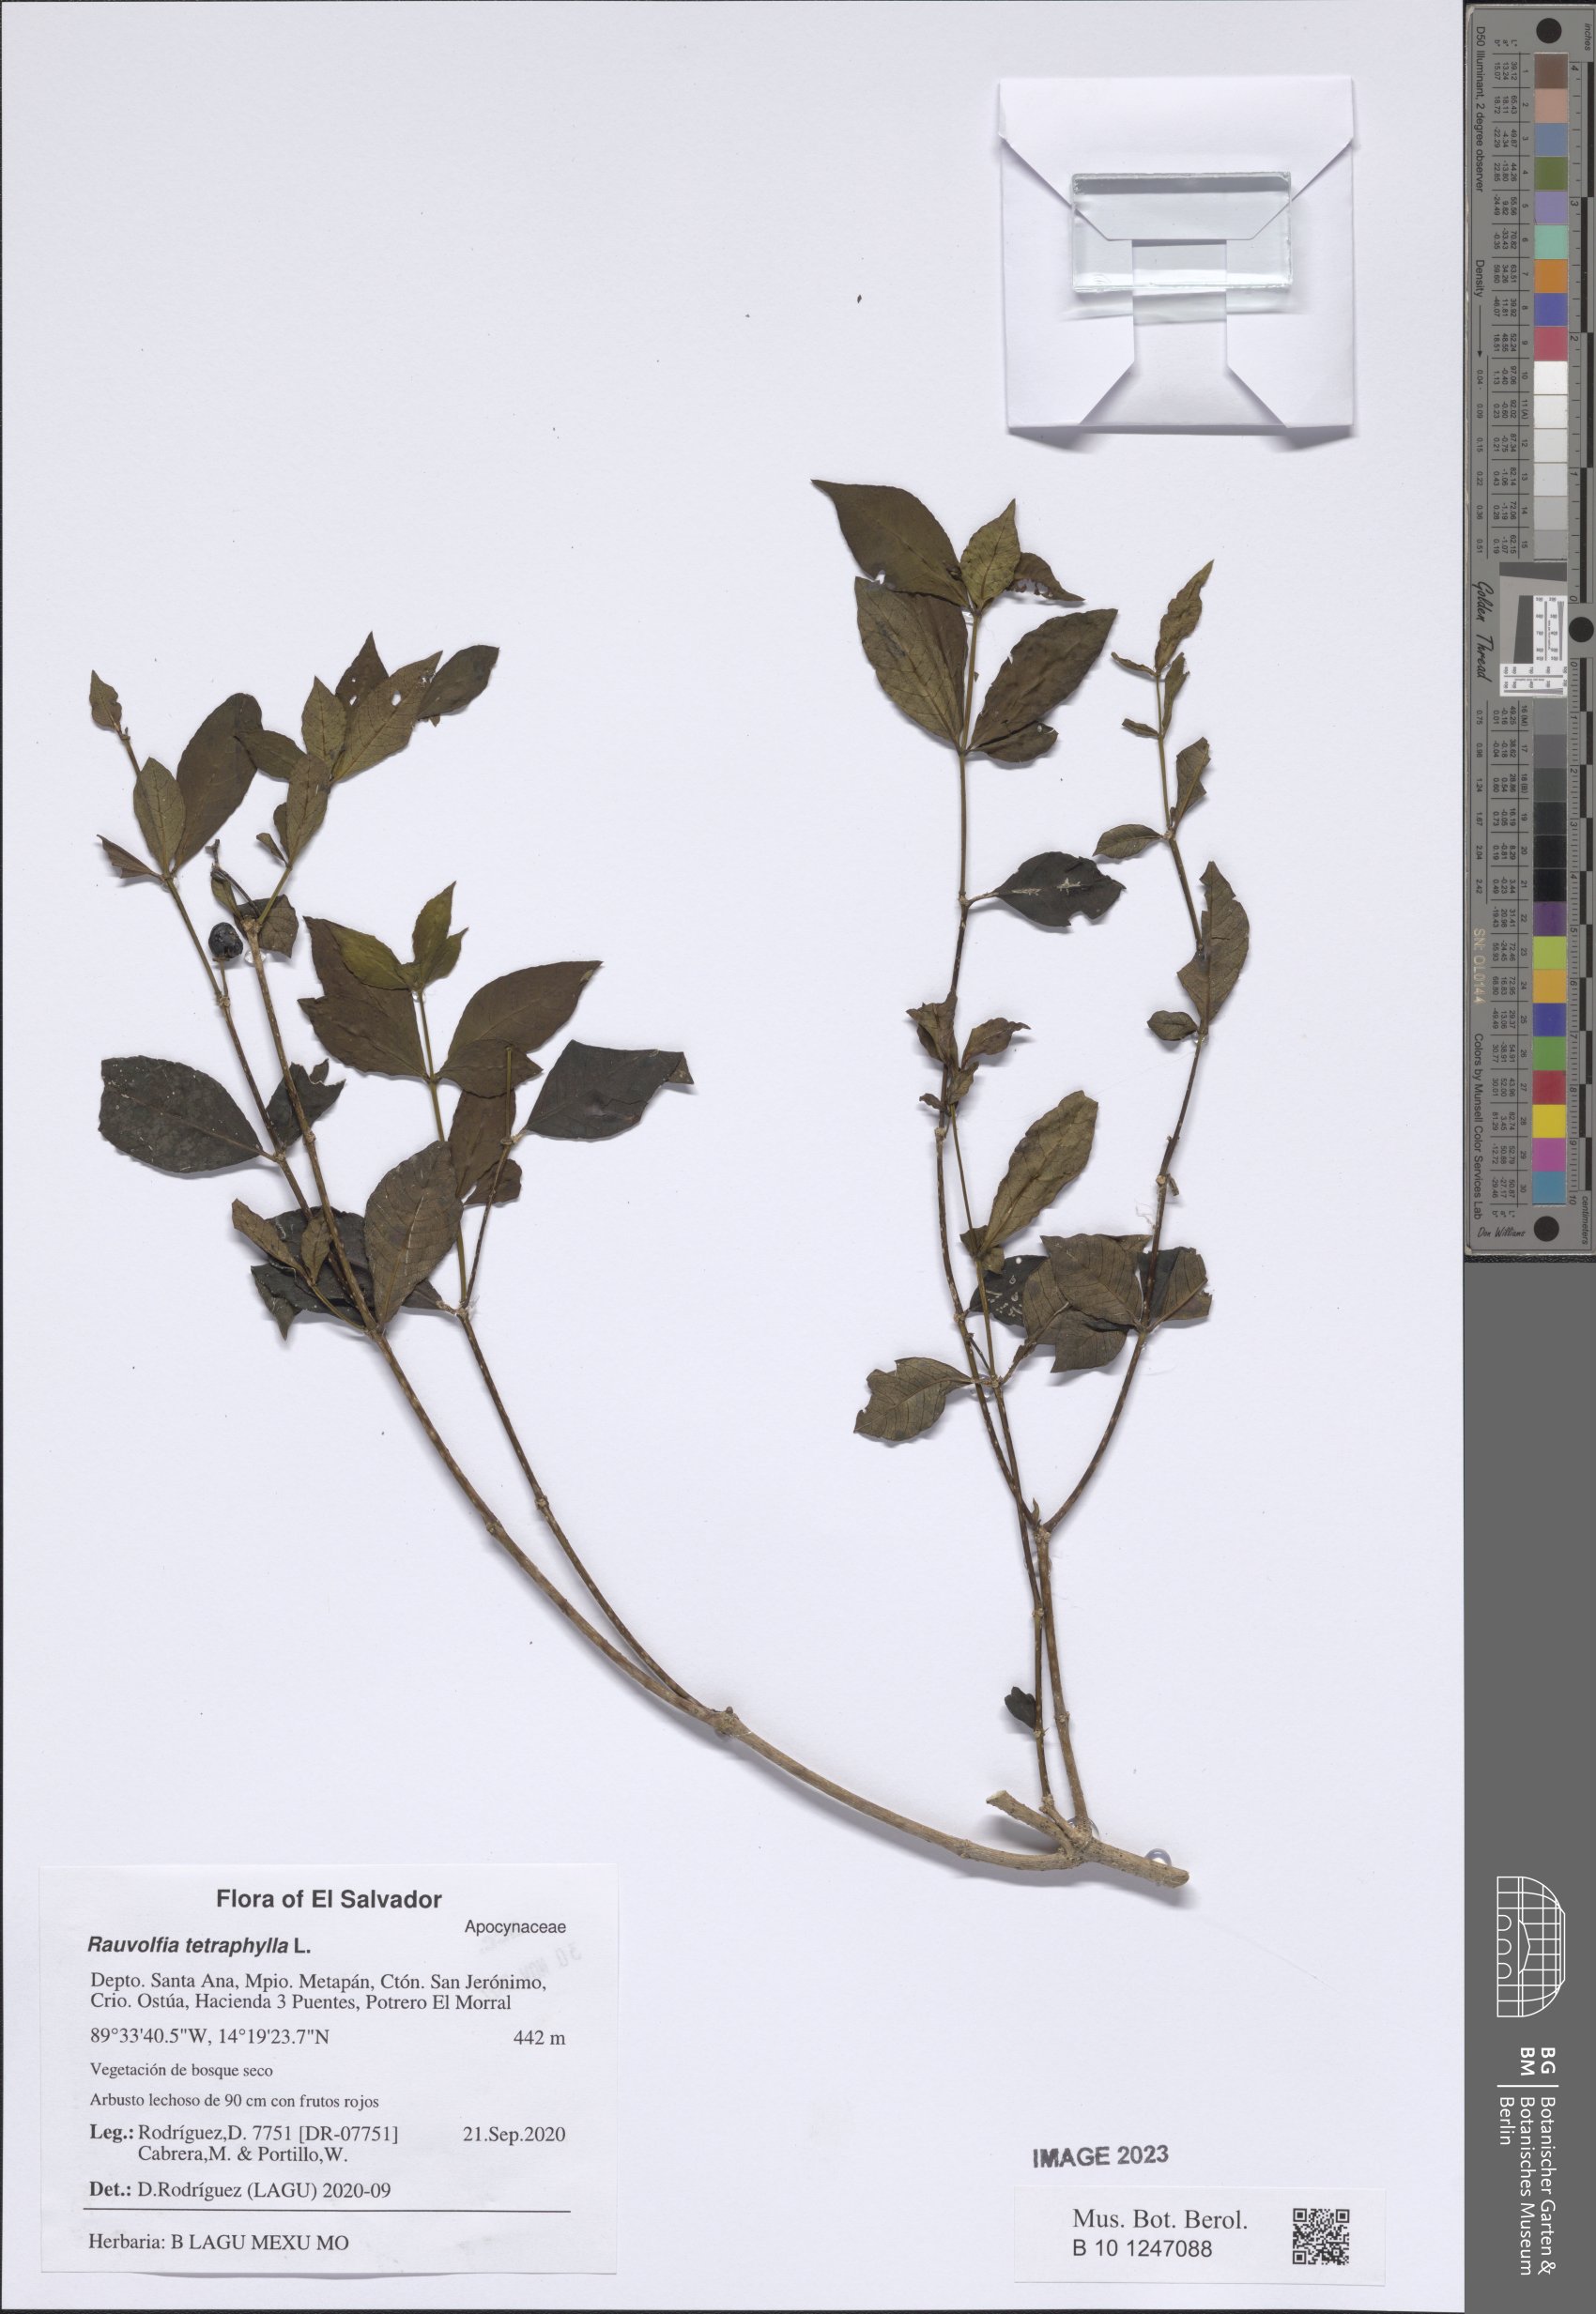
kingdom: Plantae
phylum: Tracheophyta
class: Magnoliopsida
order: Gentianales
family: Apocynaceae
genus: Rauvolfia
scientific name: Rauvolfia tetraphylla
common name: Four-leaf devil-pepper
